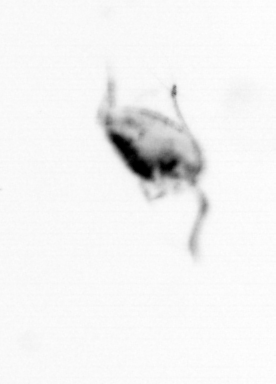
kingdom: Animalia
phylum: Arthropoda
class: Copepoda
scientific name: Copepoda
